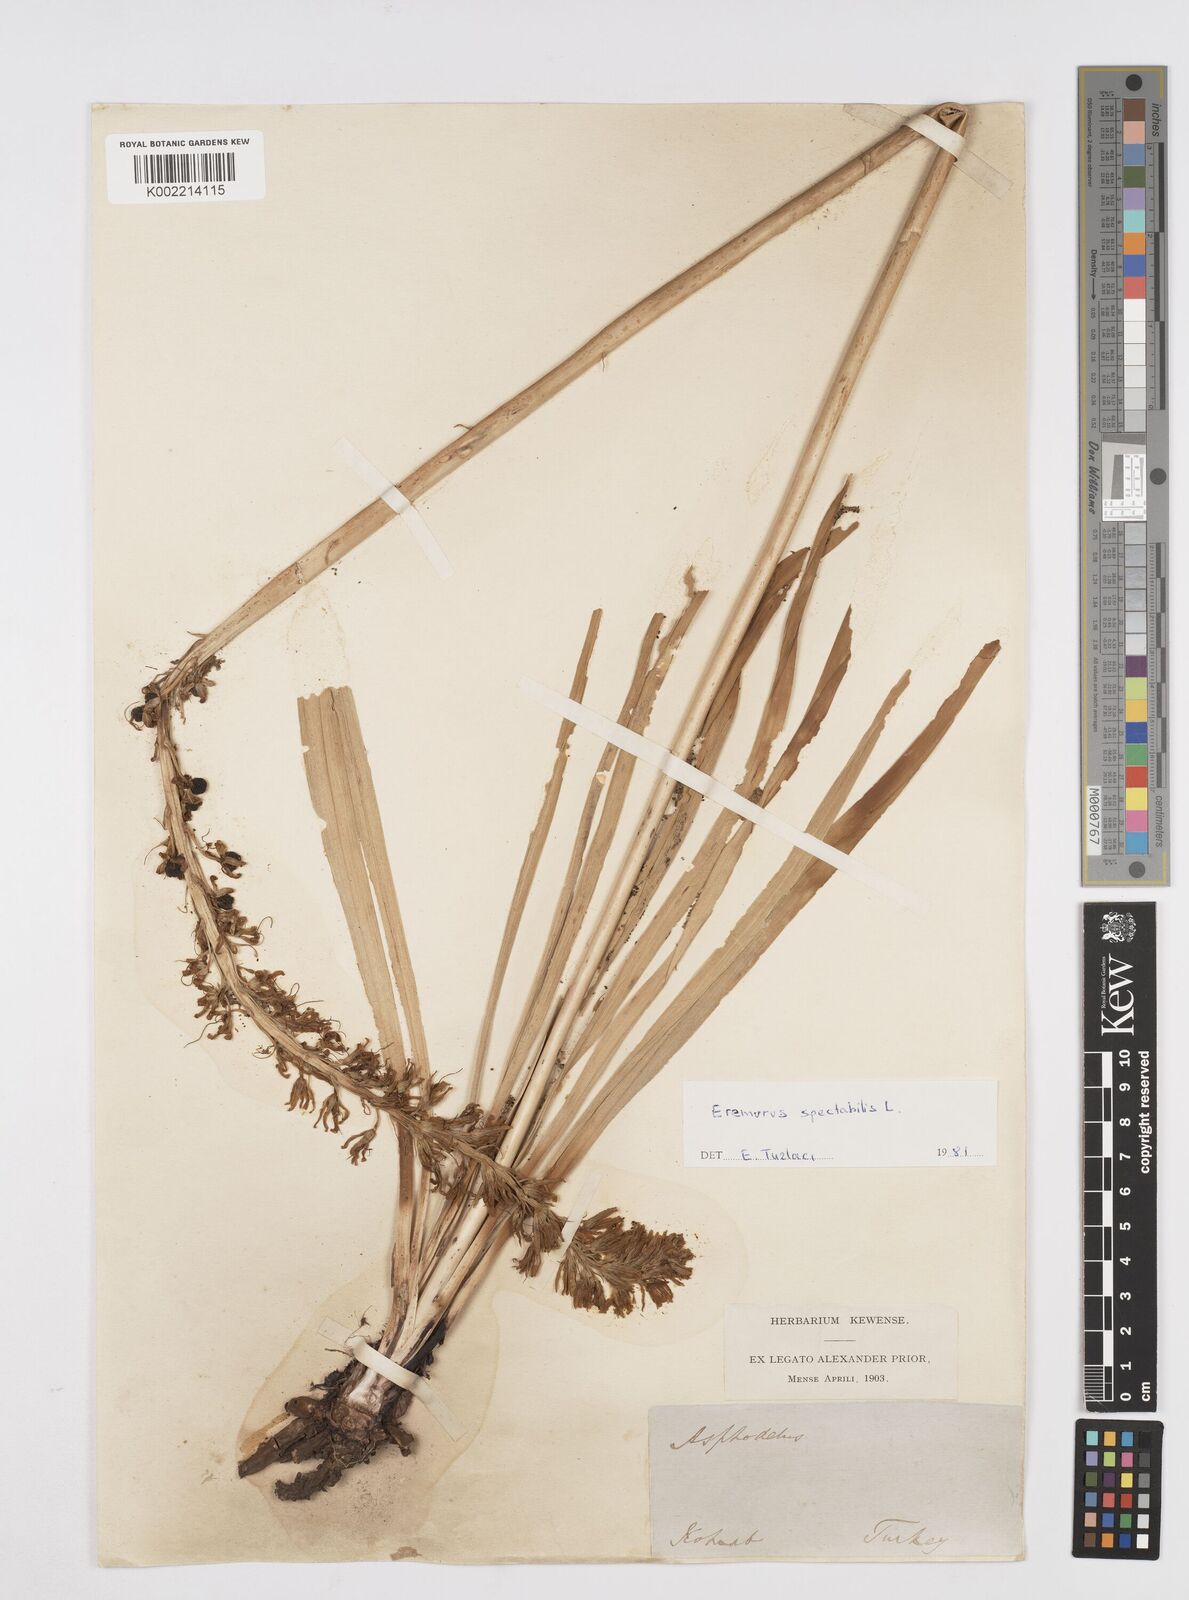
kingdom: Plantae
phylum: Tracheophyta
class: Liliopsida
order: Asparagales
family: Asphodelaceae
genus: Eremurus
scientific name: Eremurus spectabilis
